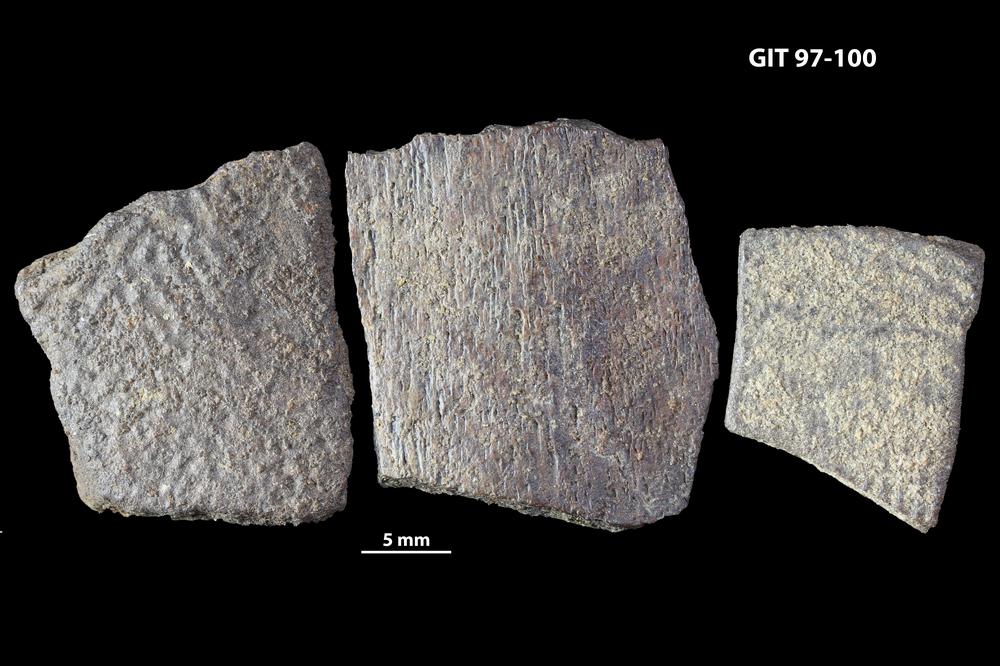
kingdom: Animalia
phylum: Chordata
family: Holonematidae
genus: Holonema
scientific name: Holonema
